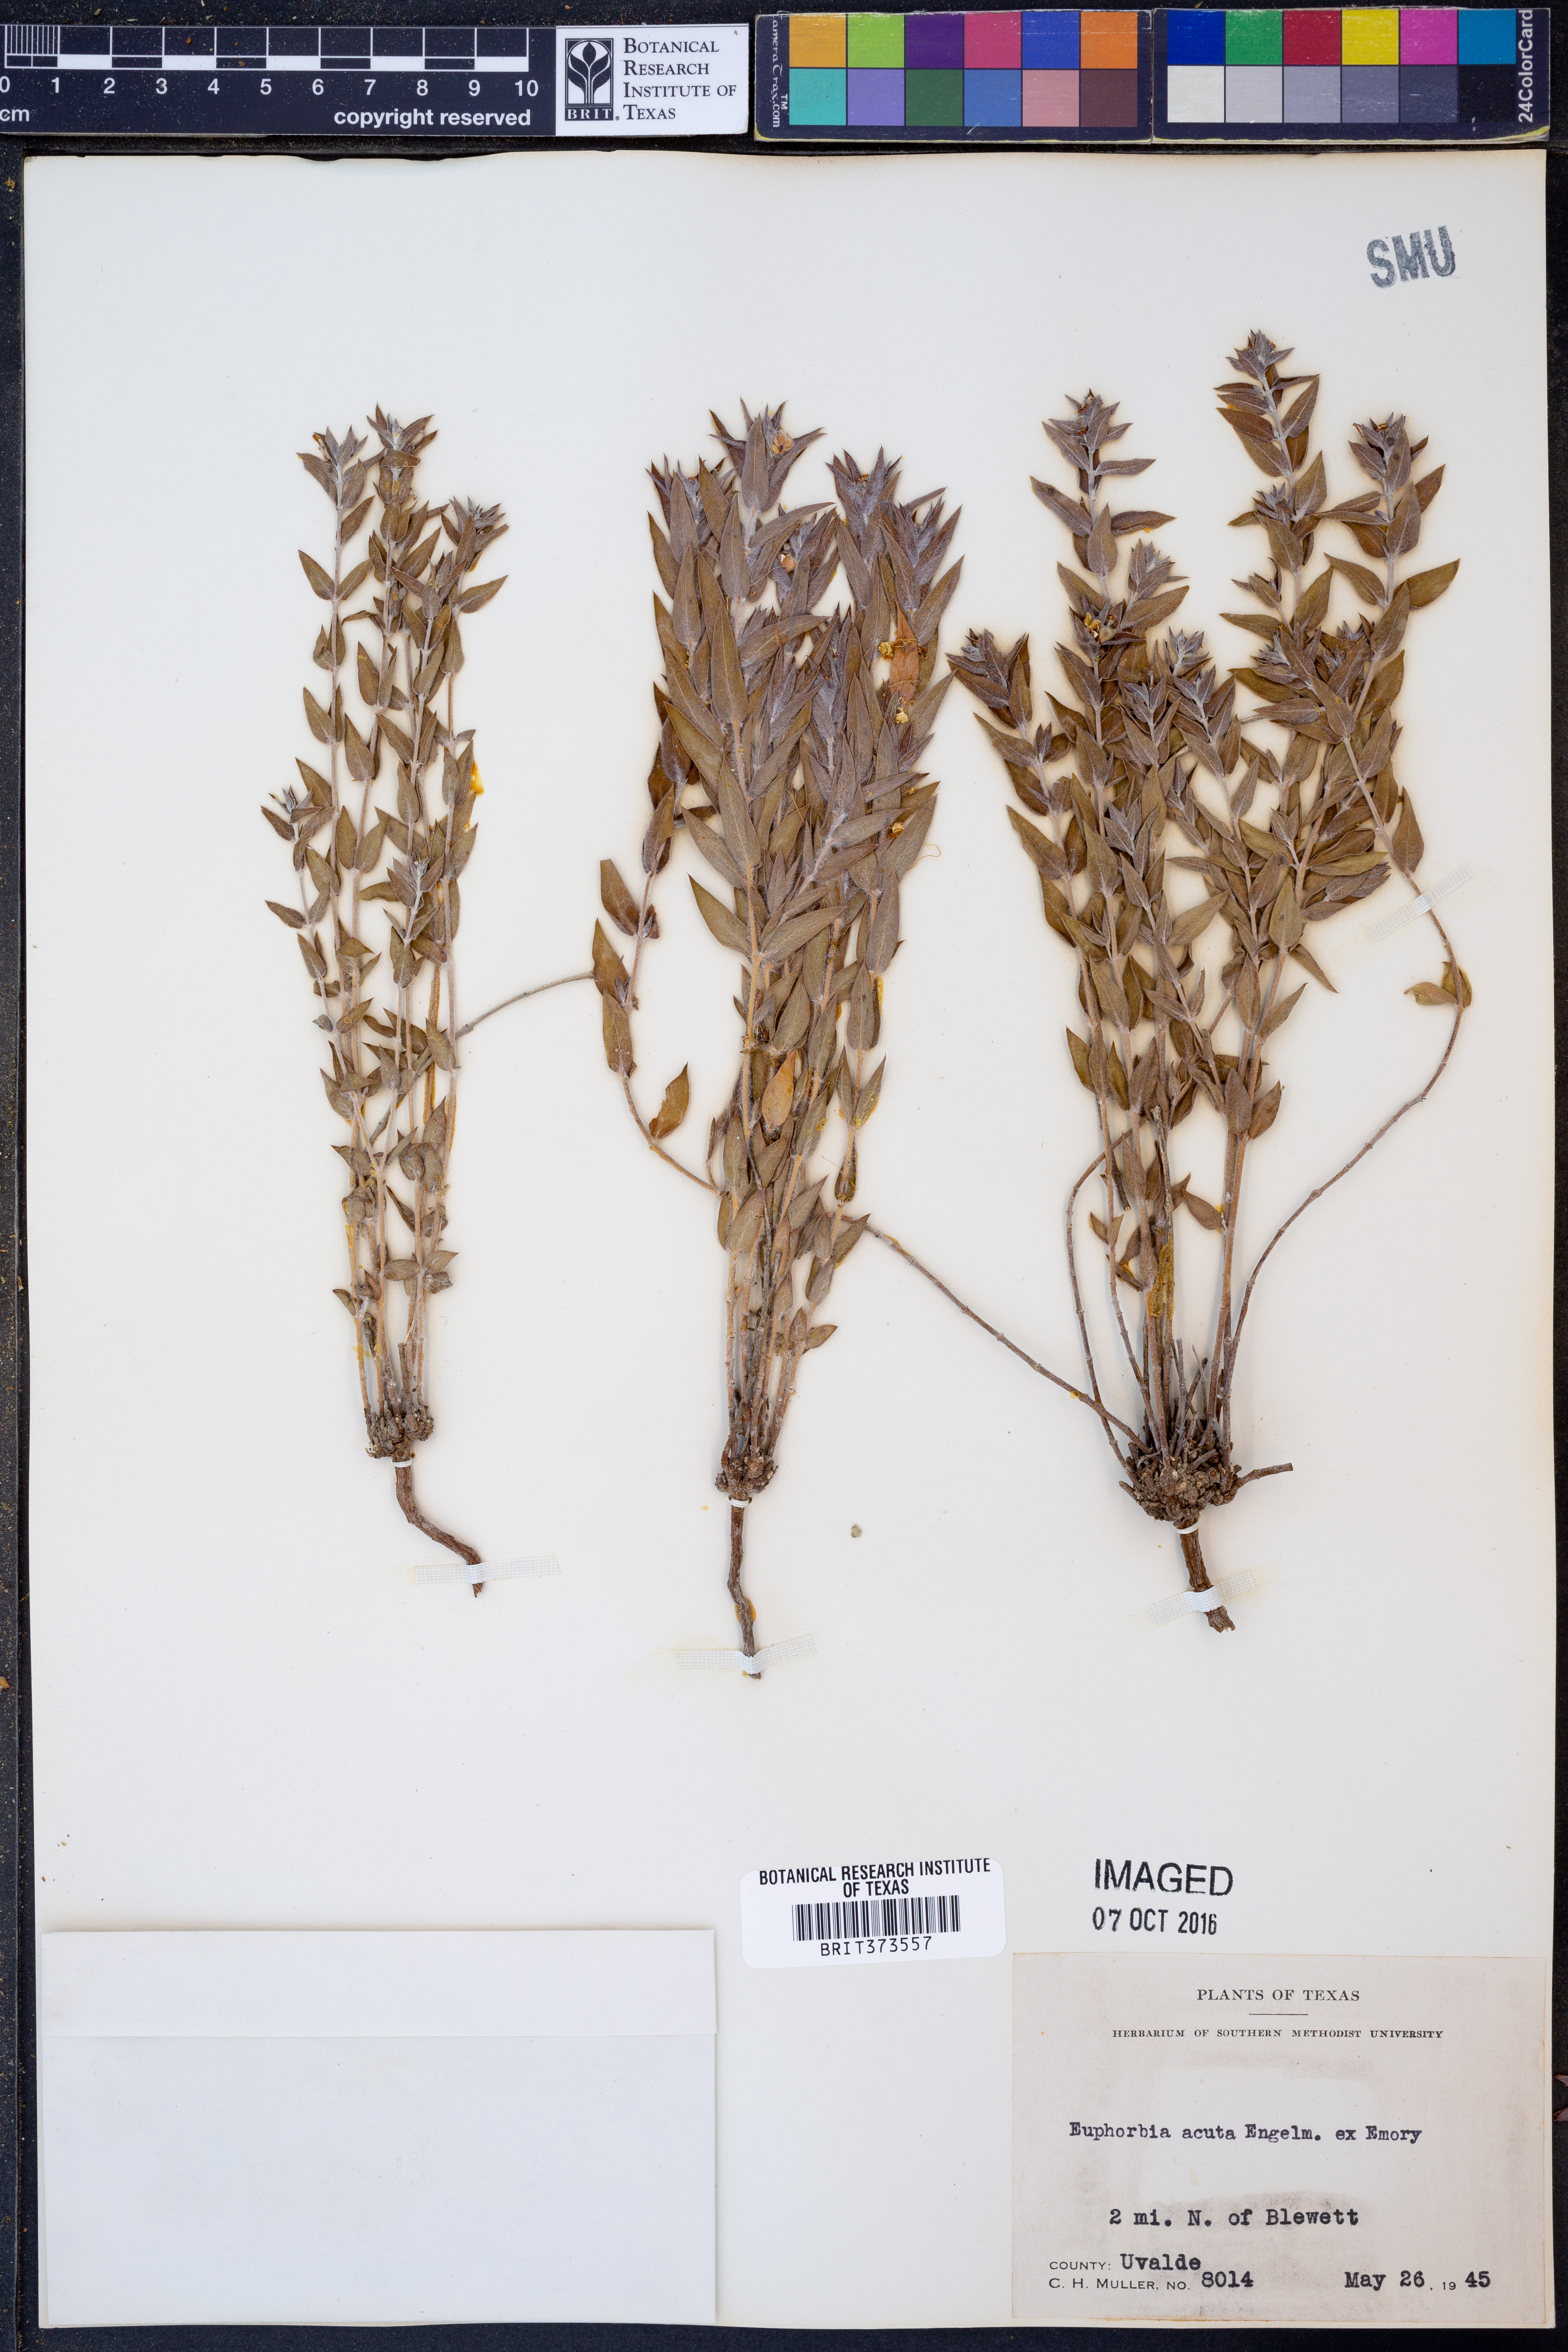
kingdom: Plantae
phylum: Tracheophyta
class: Magnoliopsida
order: Malpighiales
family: Euphorbiaceae
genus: Euphorbia
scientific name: Euphorbia acuta
